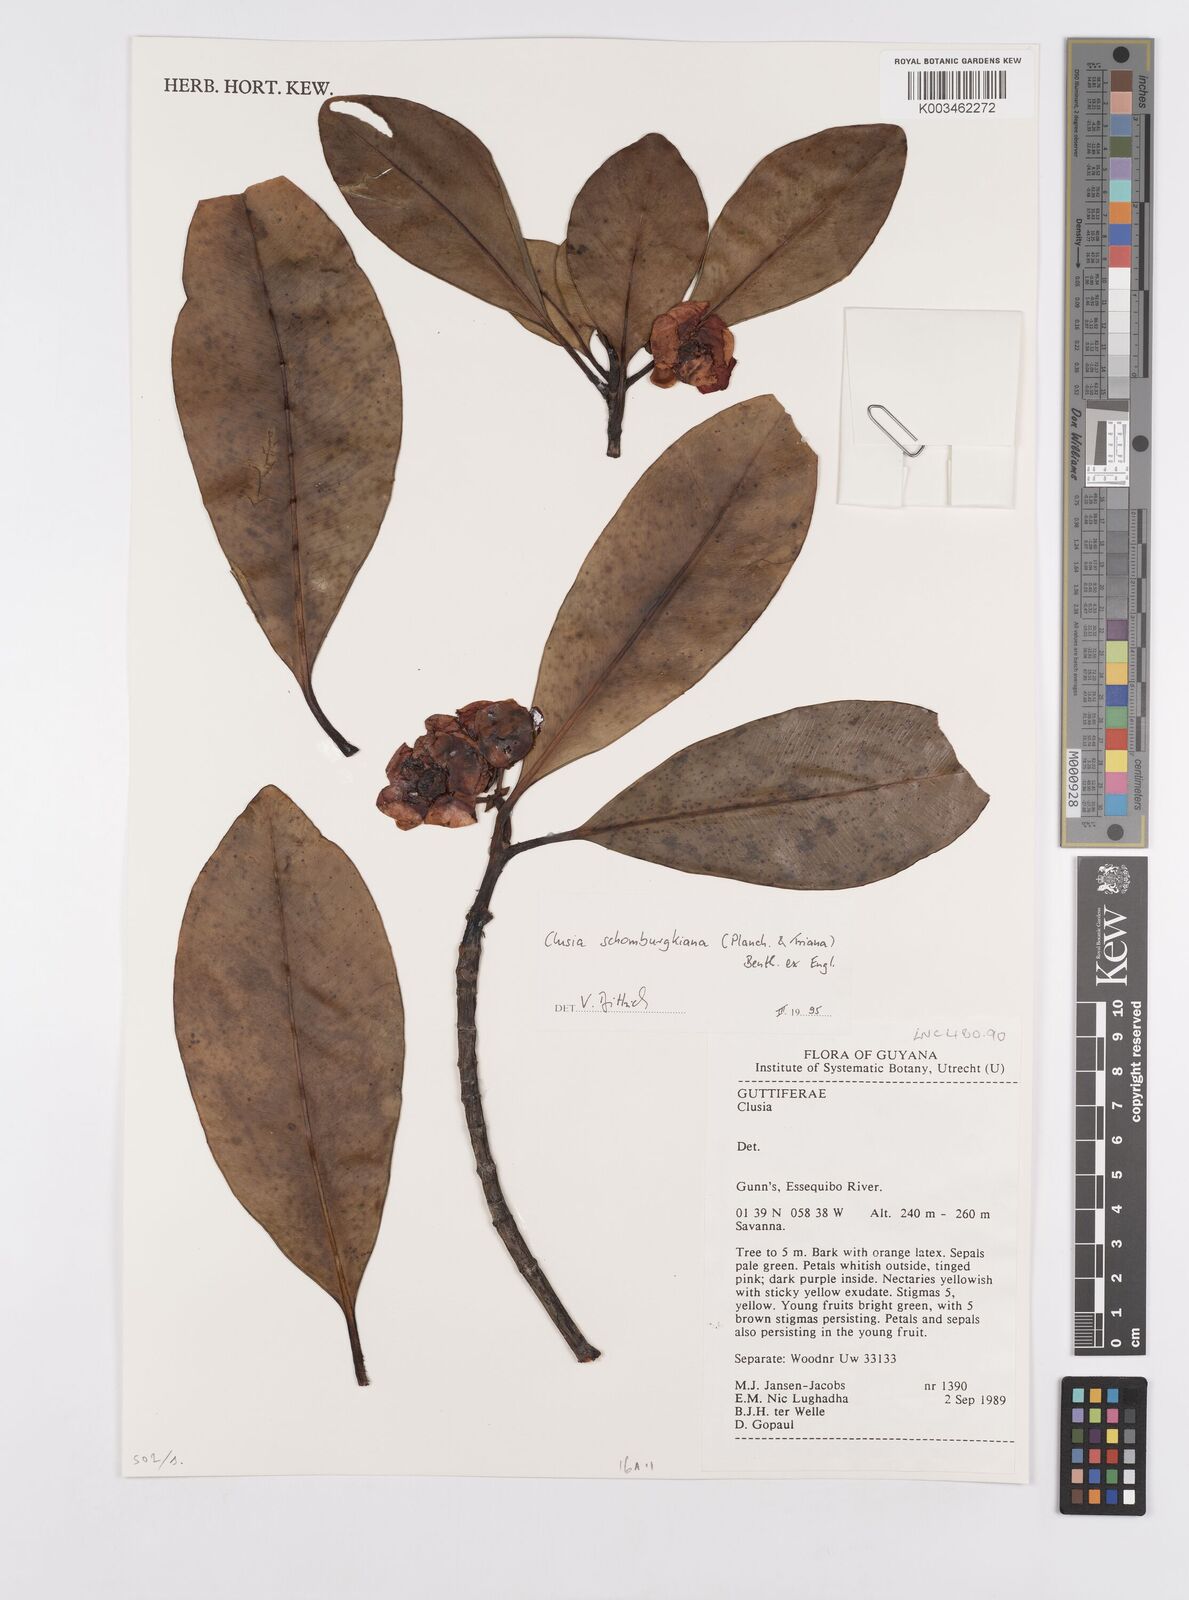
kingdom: Plantae
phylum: Tracheophyta
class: Magnoliopsida
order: Malpighiales
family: Clusiaceae
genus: Clusia
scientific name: Clusia schomburgkiana
